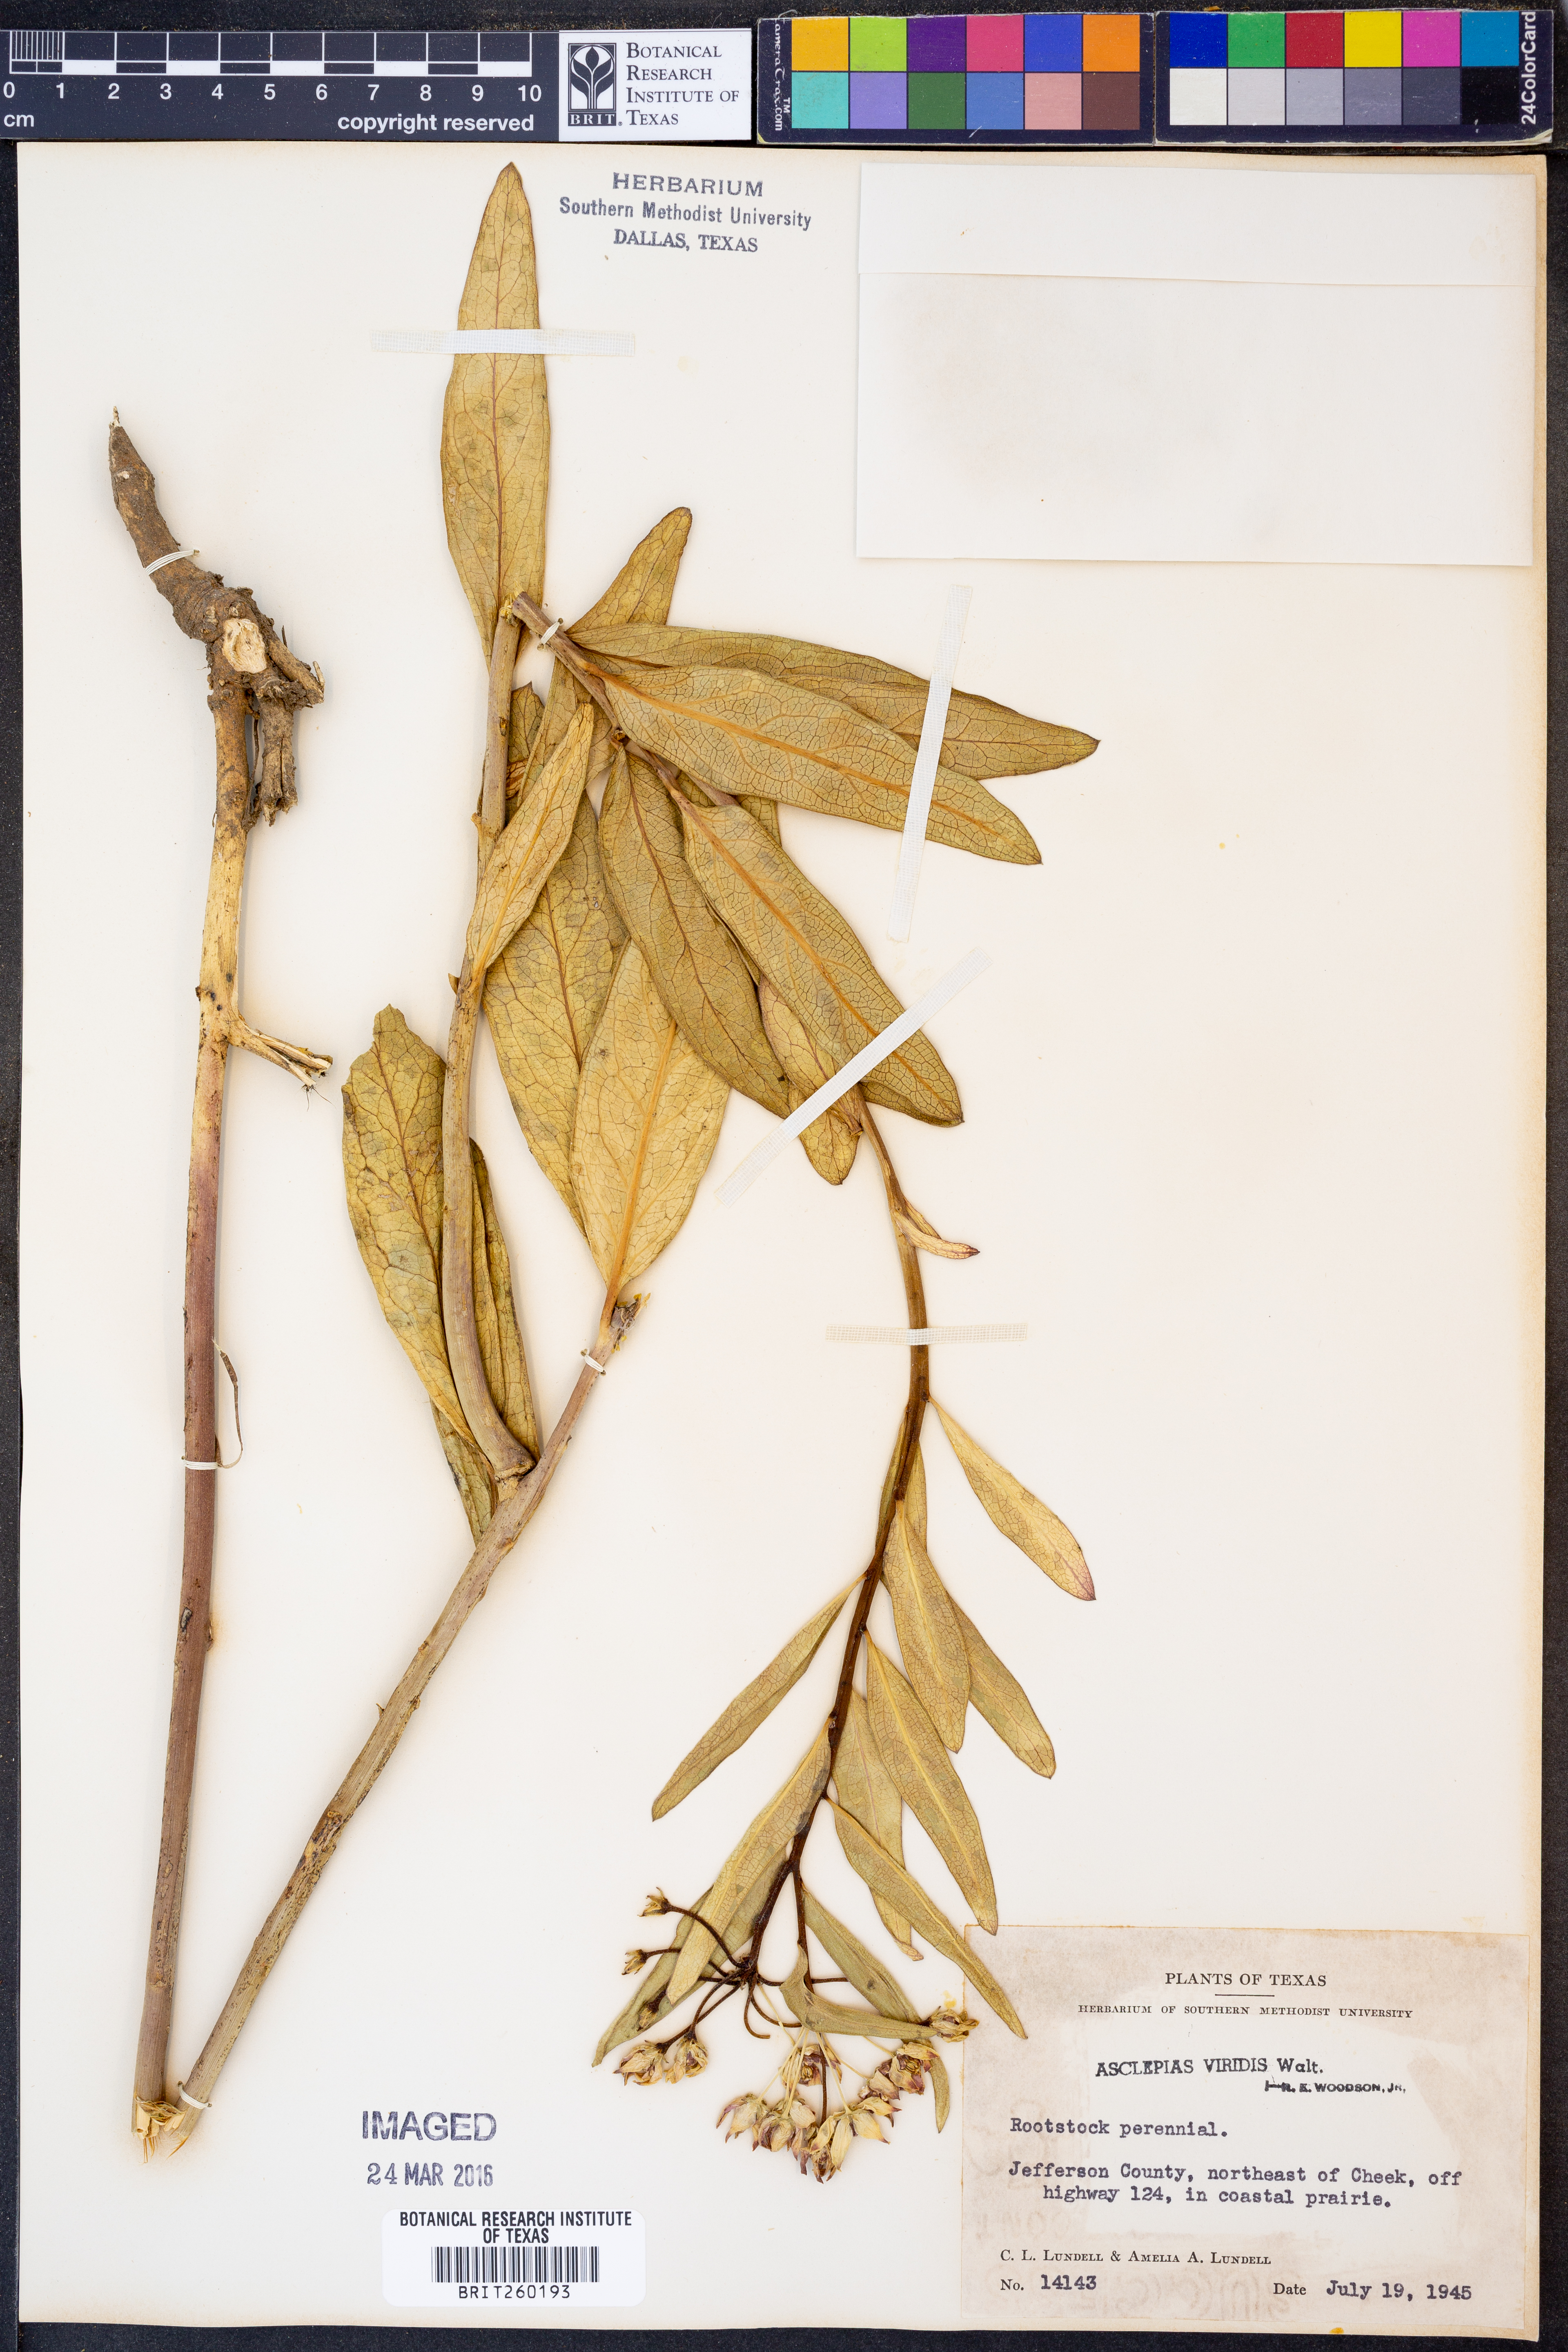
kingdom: Plantae
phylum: Tracheophyta
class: Magnoliopsida
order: Gentianales
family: Apocynaceae
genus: Asclepias
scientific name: Asclepias viridis
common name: Antelope-horns
